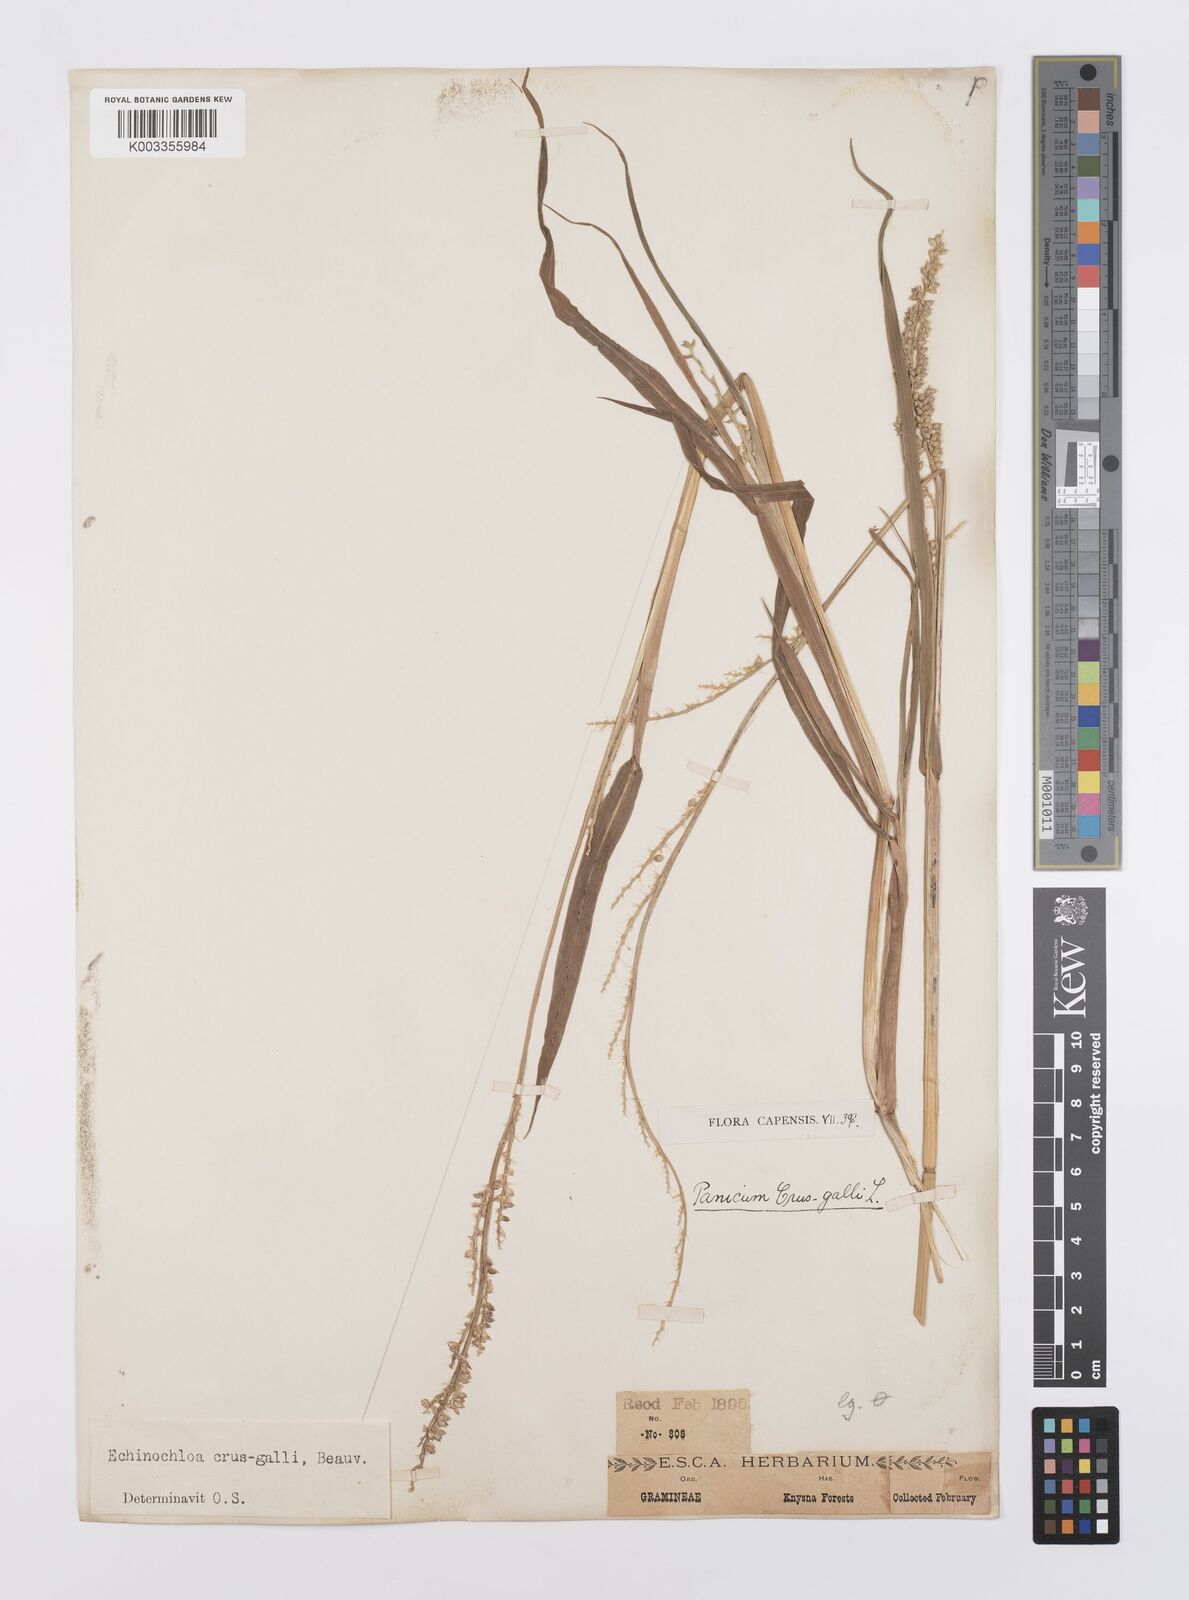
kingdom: Plantae
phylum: Tracheophyta
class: Liliopsida
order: Poales
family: Poaceae
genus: Echinochloa
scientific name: Echinochloa crus-galli
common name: Cockspur
